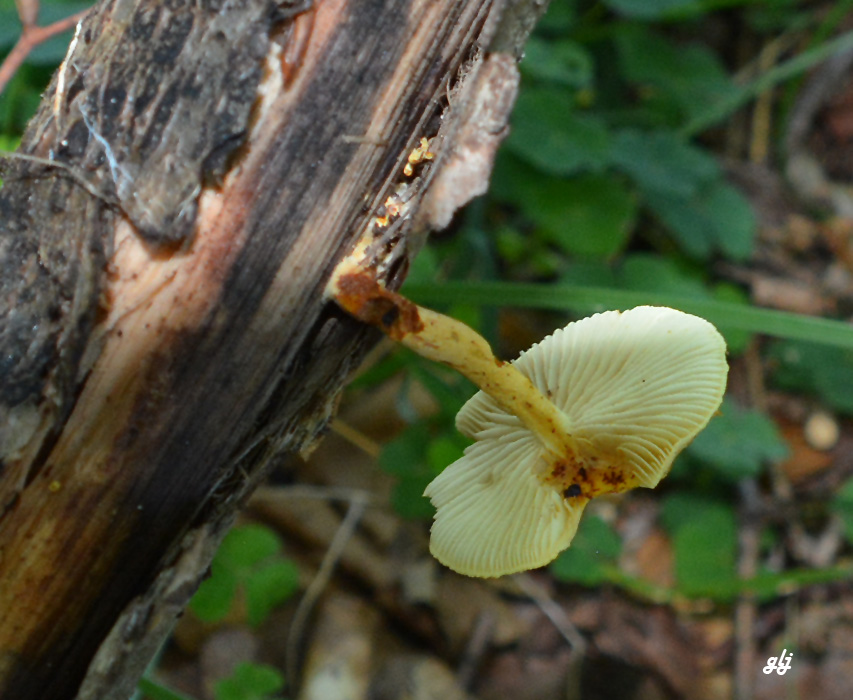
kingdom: Fungi
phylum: Basidiomycota
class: Agaricomycetes
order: Agaricales
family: Strophariaceae
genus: Pholiota
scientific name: Pholiota tuberculosa
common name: finskællet skælhat
